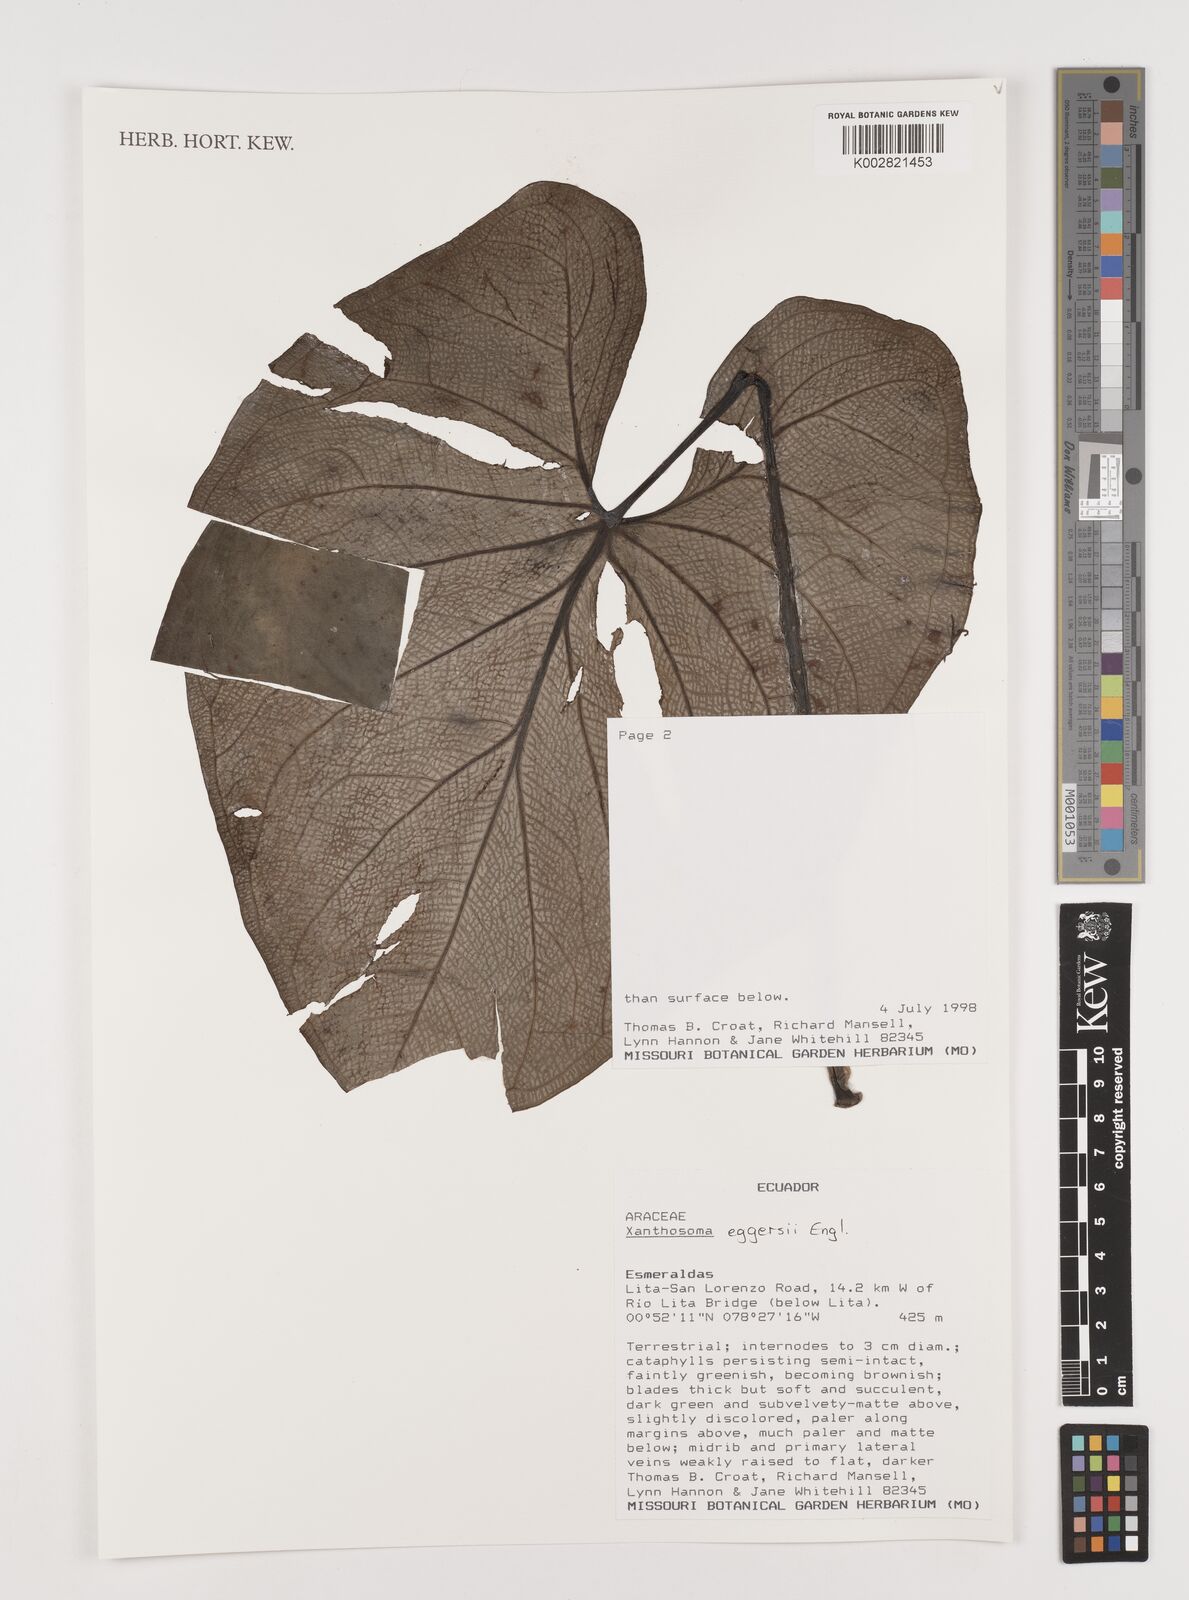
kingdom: Plantae
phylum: Tracheophyta
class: Liliopsida
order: Alismatales
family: Araceae
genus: Xanthosoma
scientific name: Xanthosoma eggersii
